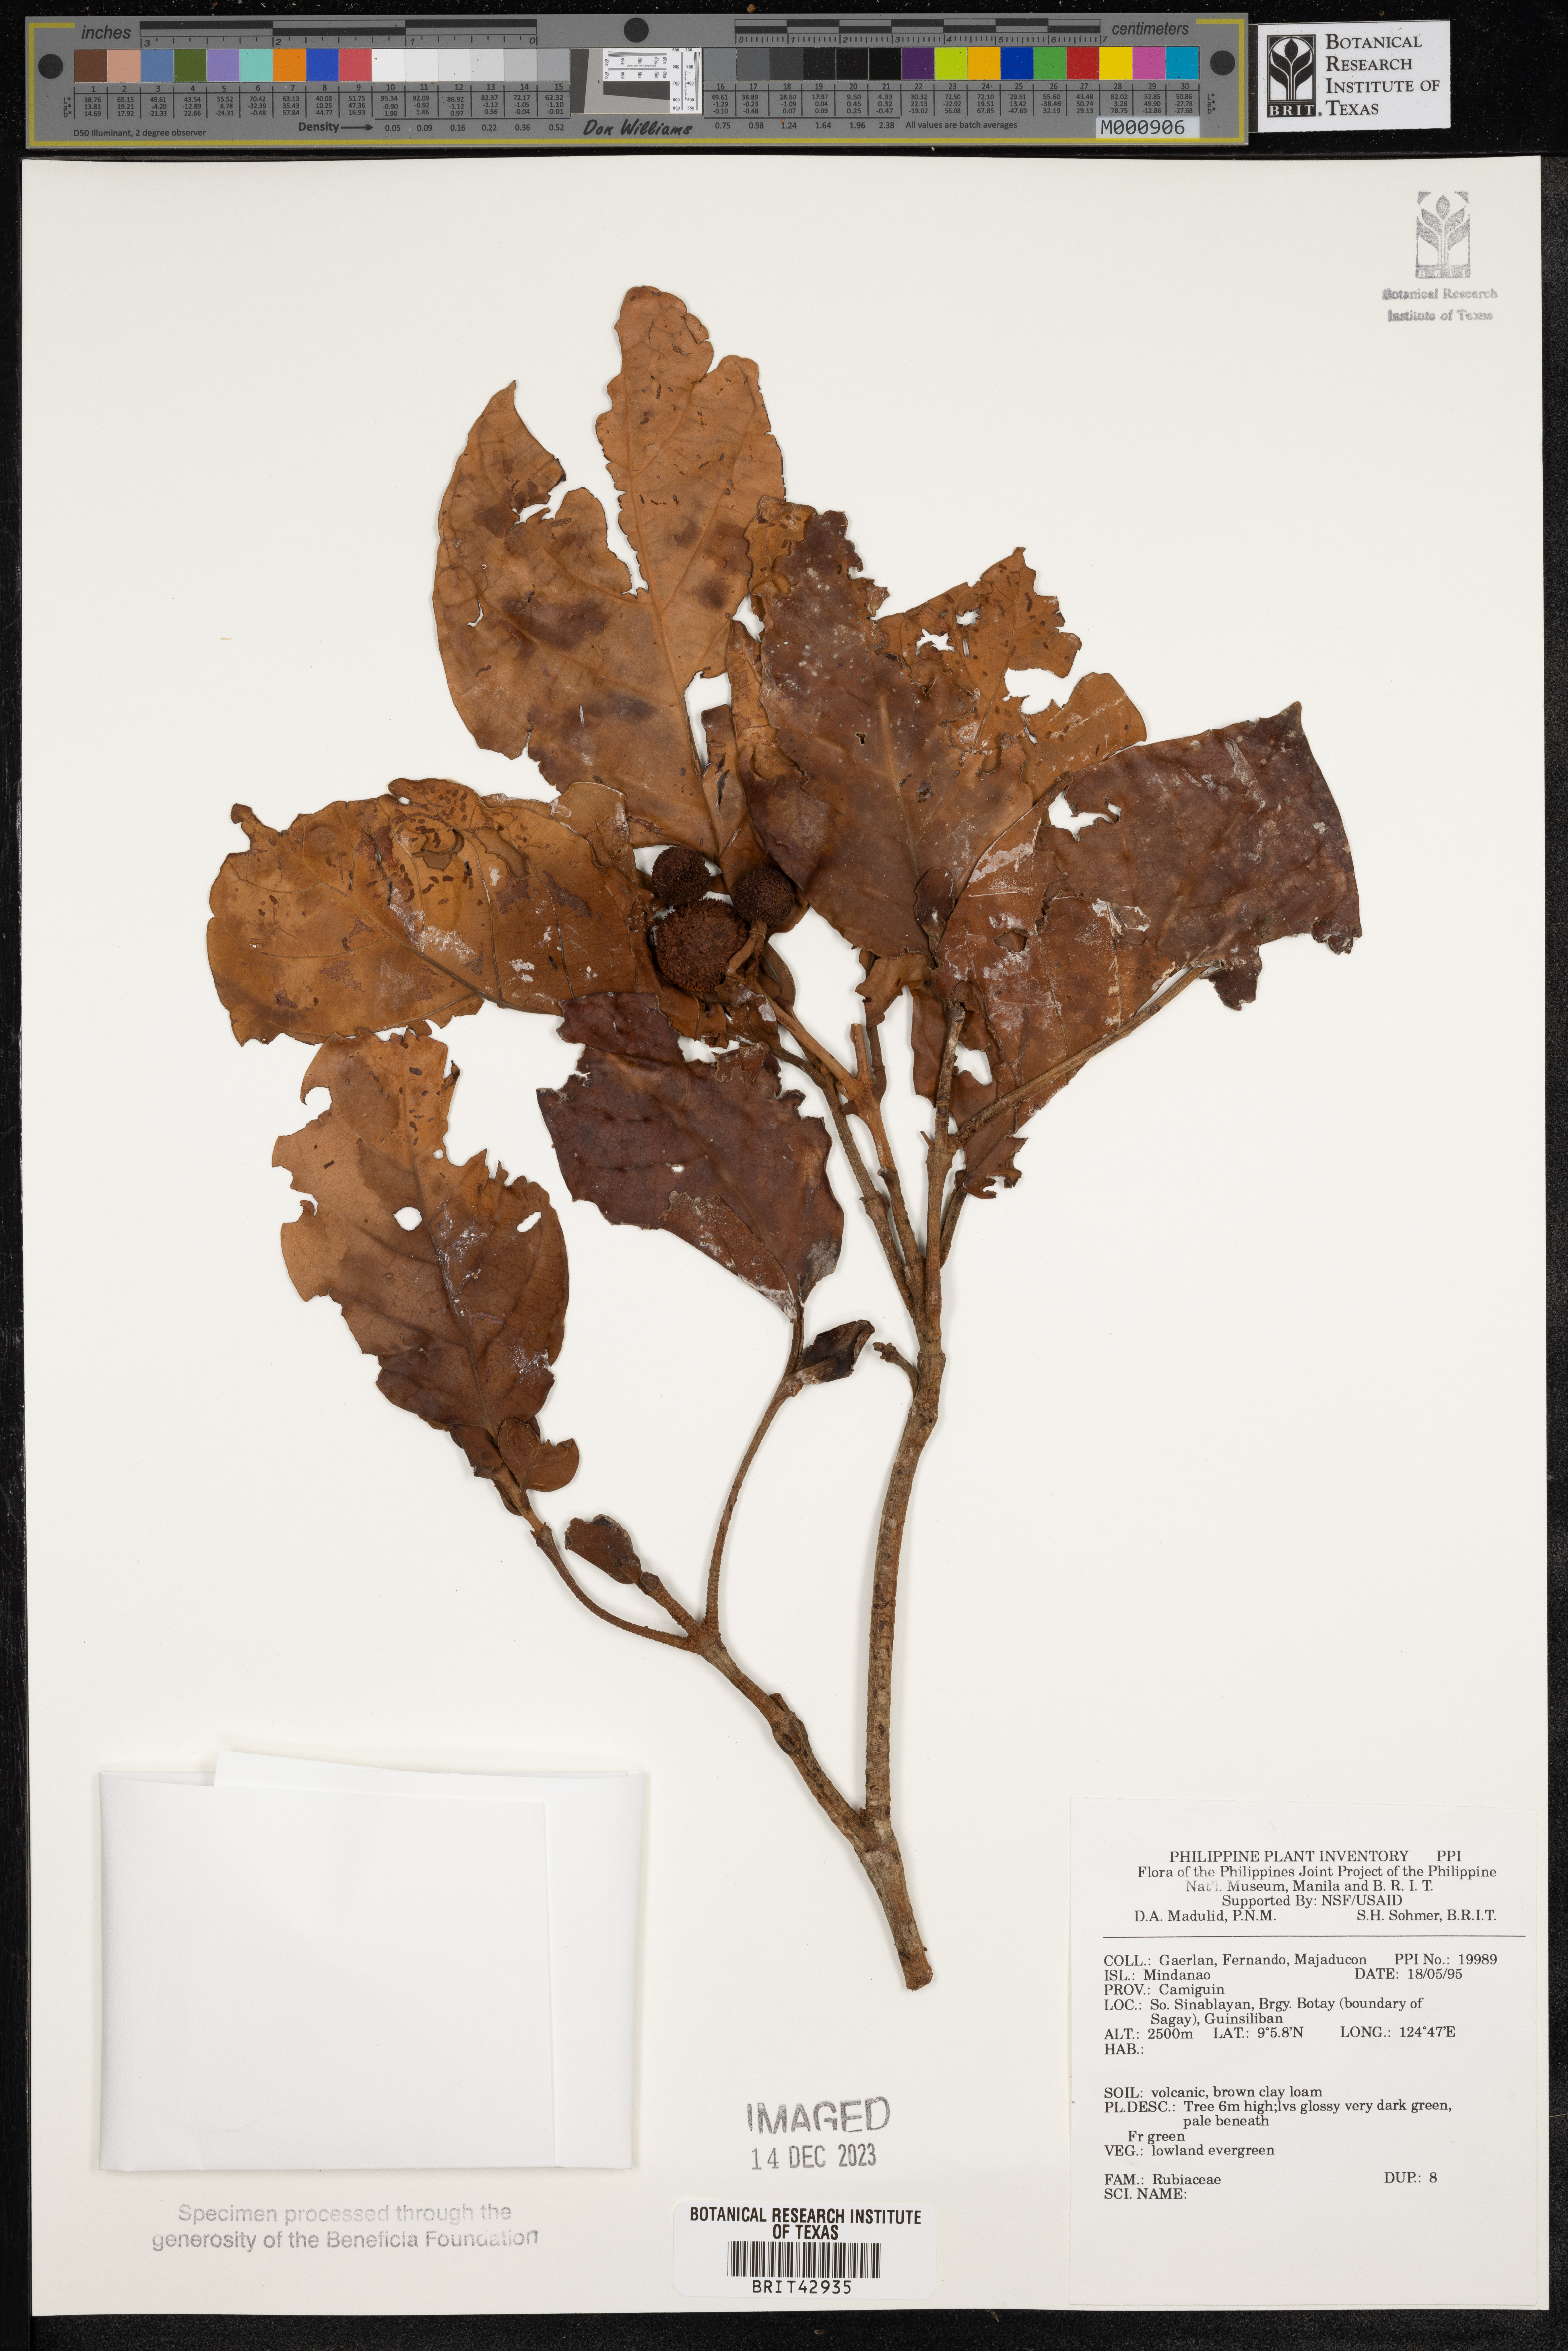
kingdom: Plantae
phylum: Tracheophyta
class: Magnoliopsida
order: Gentianales
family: Rubiaceae
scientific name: Rubiaceae
